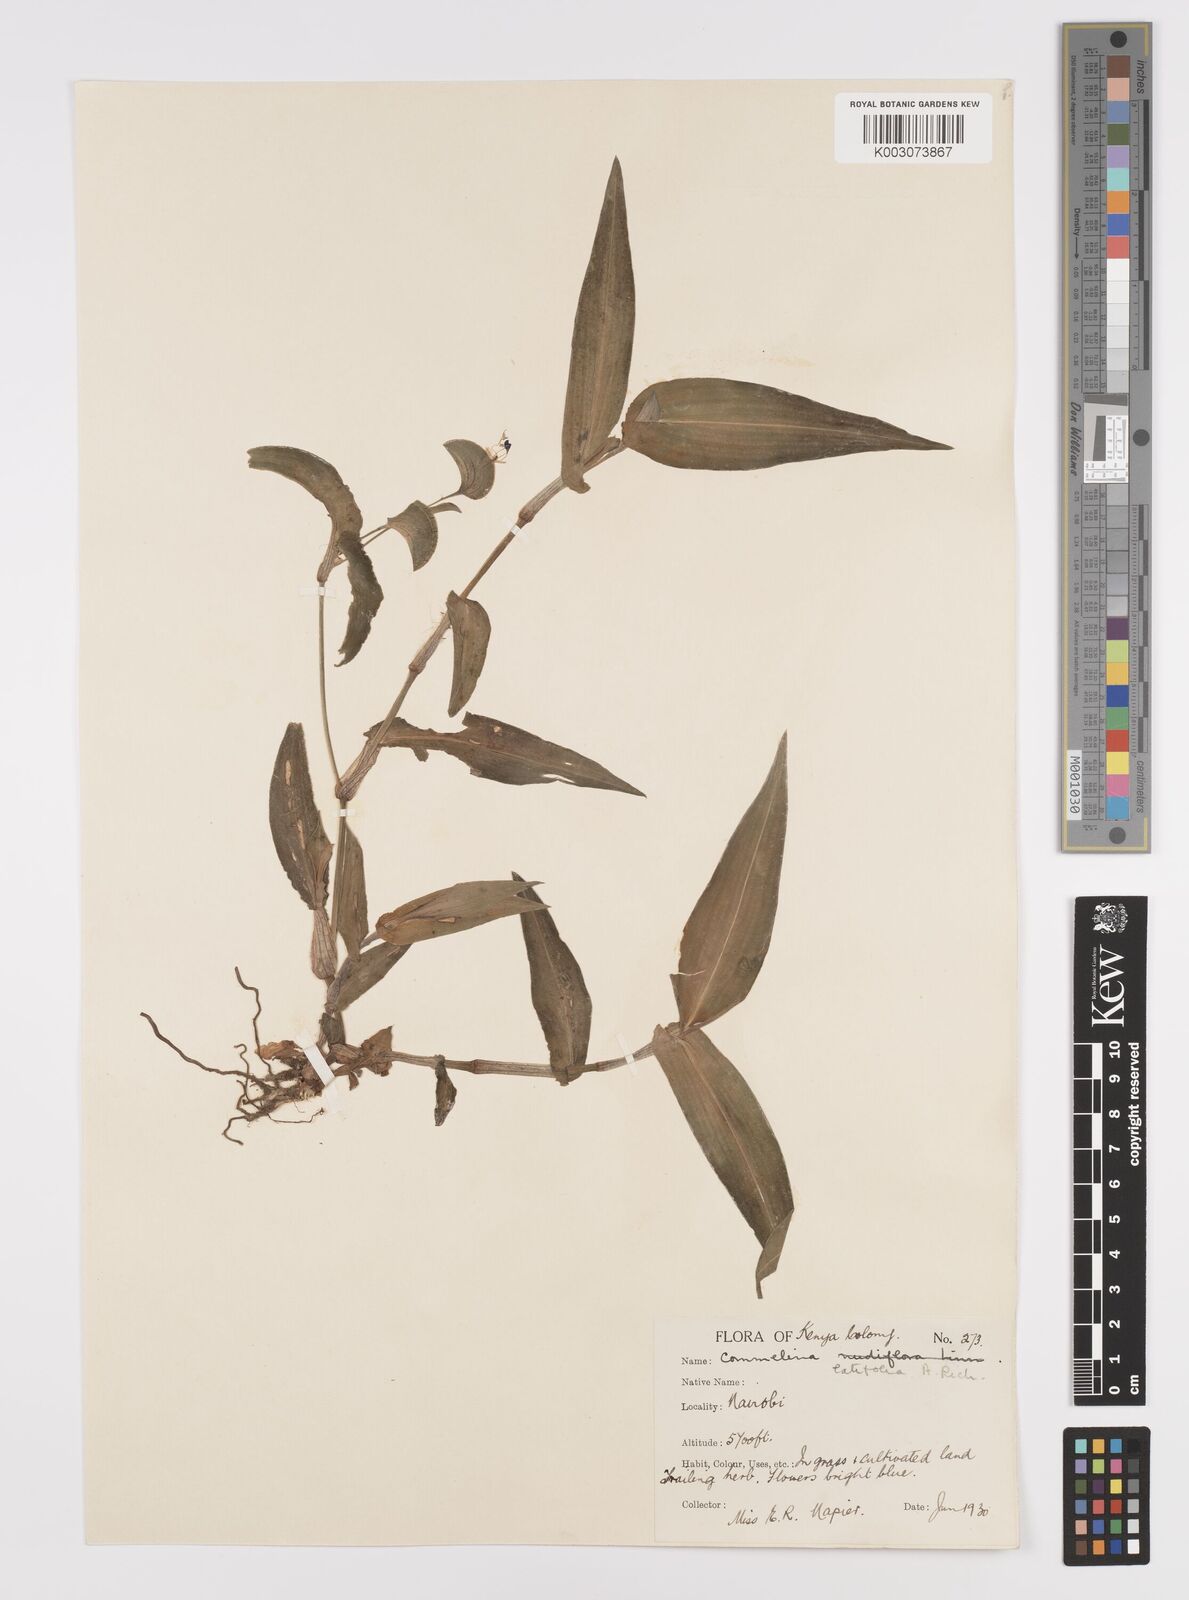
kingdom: Plantae
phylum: Tracheophyta
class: Liliopsida
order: Commelinales
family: Commelinaceae
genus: Commelina
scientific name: Commelina latifolia
